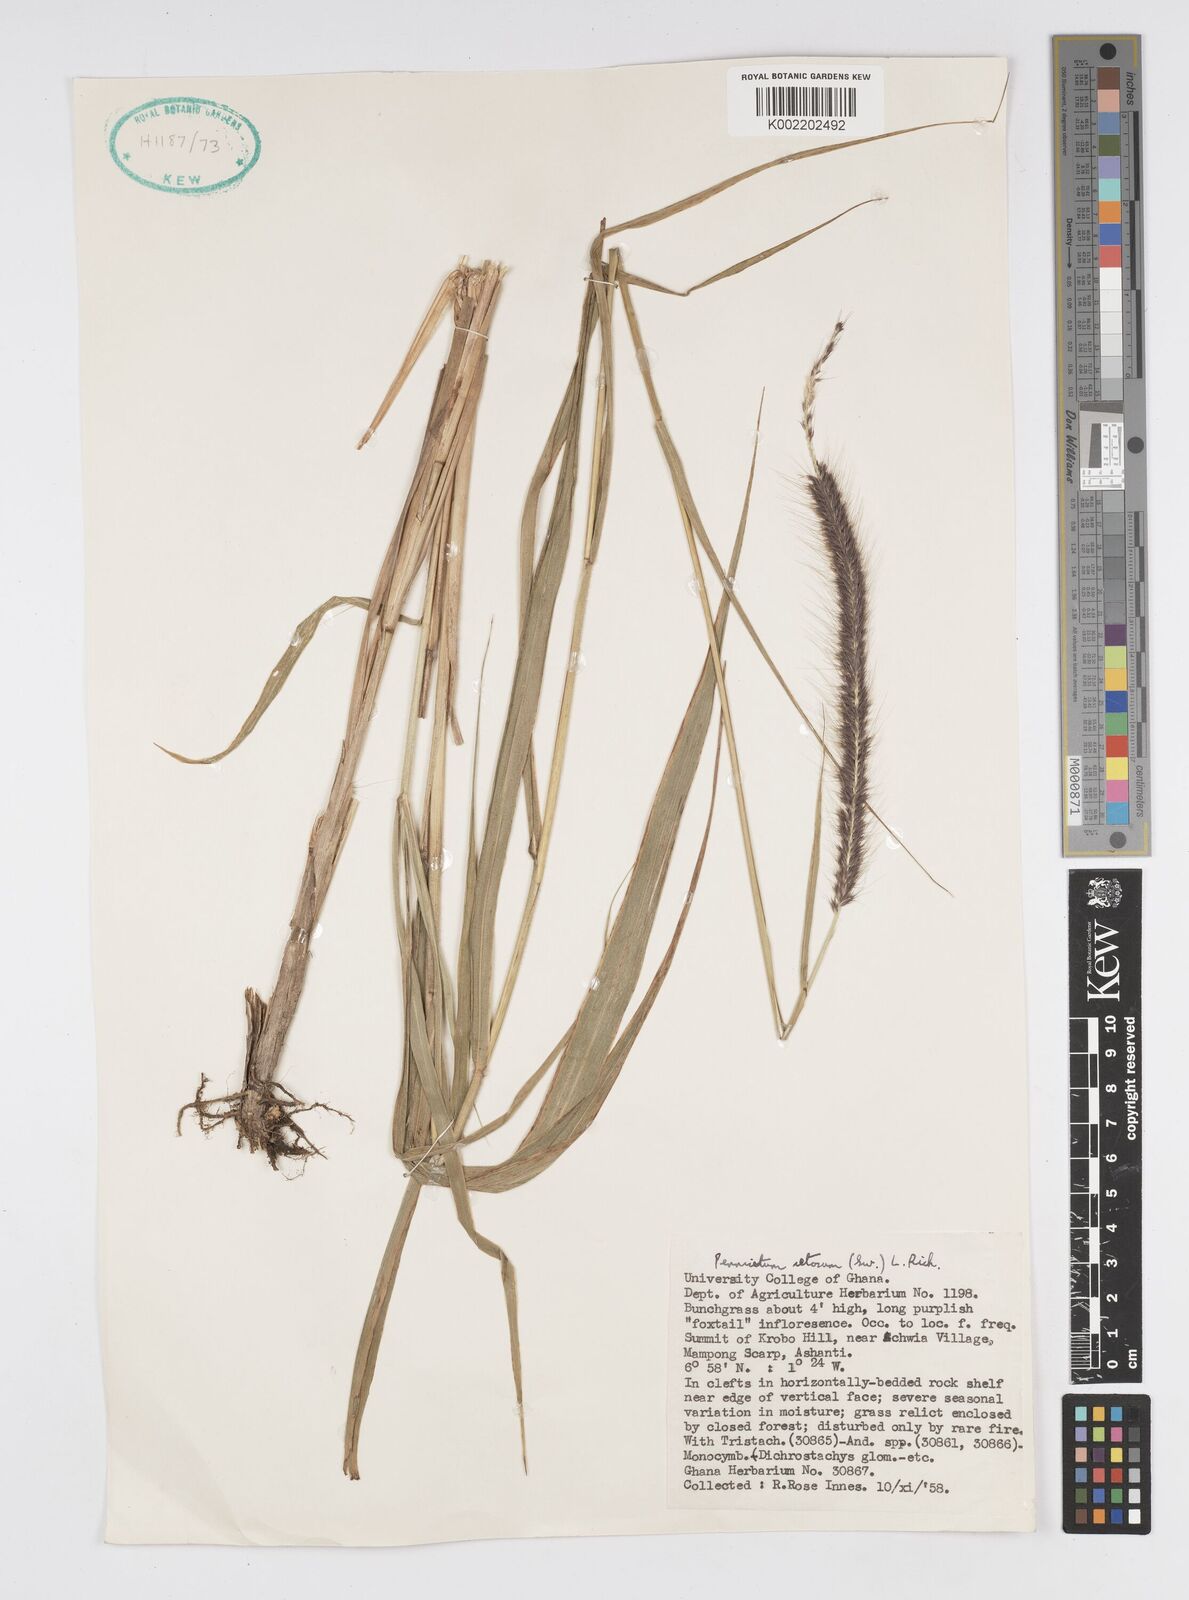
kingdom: Plantae
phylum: Tracheophyta
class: Liliopsida
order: Poales
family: Poaceae
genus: Setaria
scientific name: Setaria parviflora
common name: Knotroot bristle-grass
